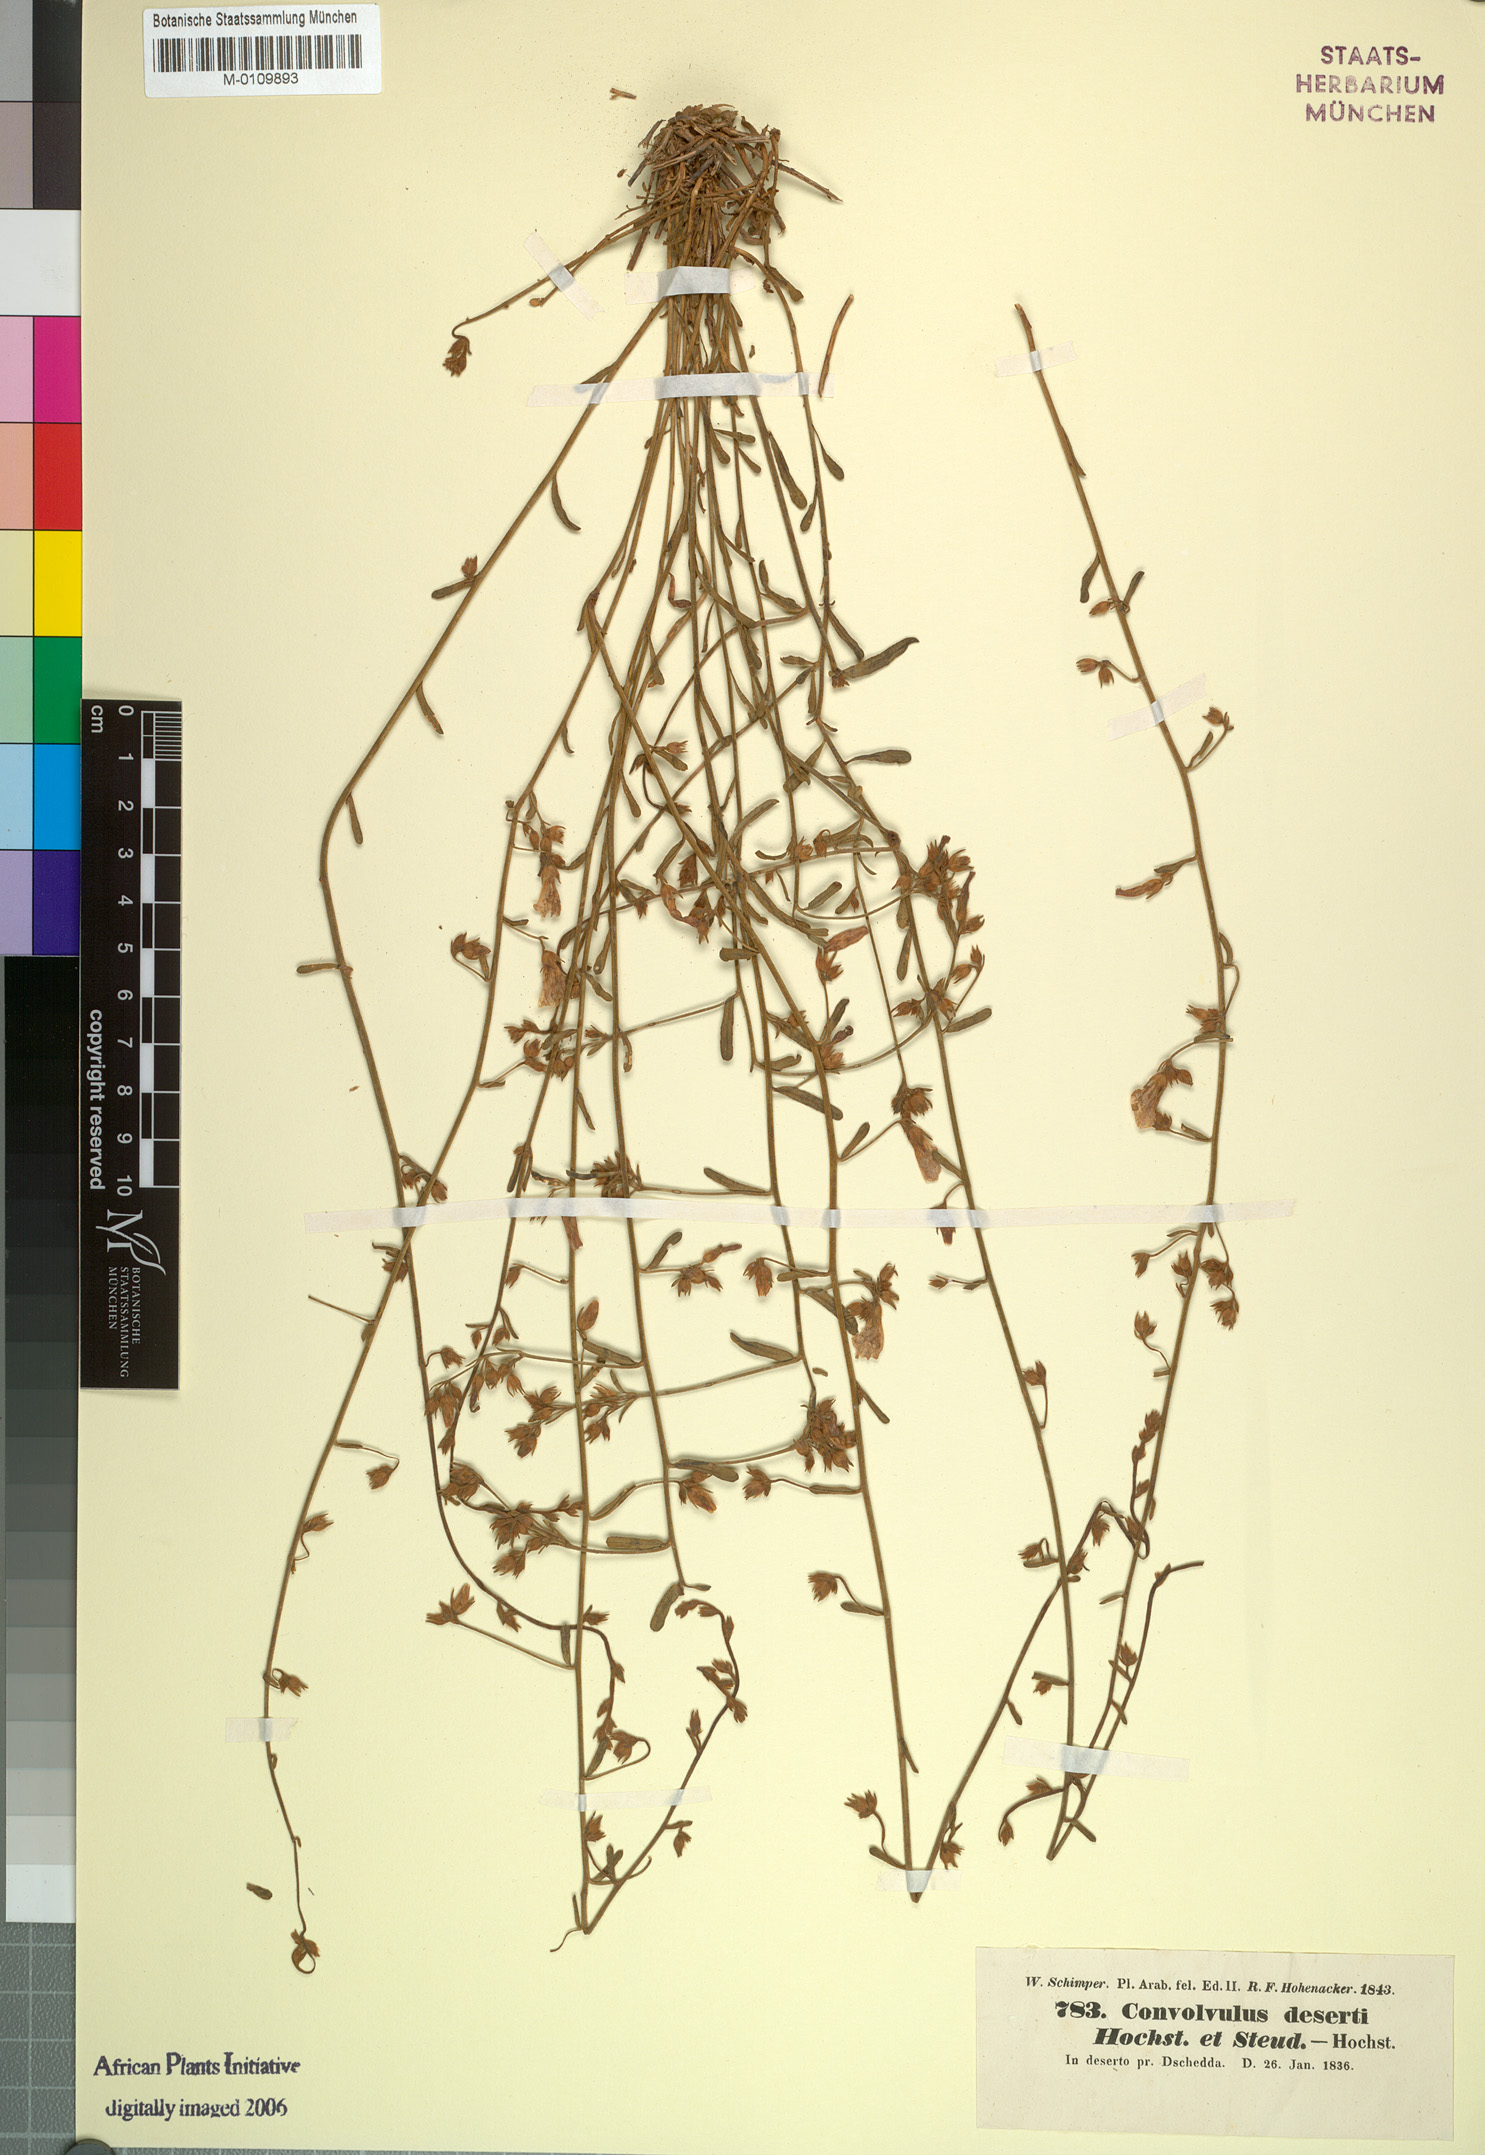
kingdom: Plantae
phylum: Tracheophyta
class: Magnoliopsida
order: Solanales
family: Convolvulaceae
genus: Convolvulus
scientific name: Convolvulus prostratus
